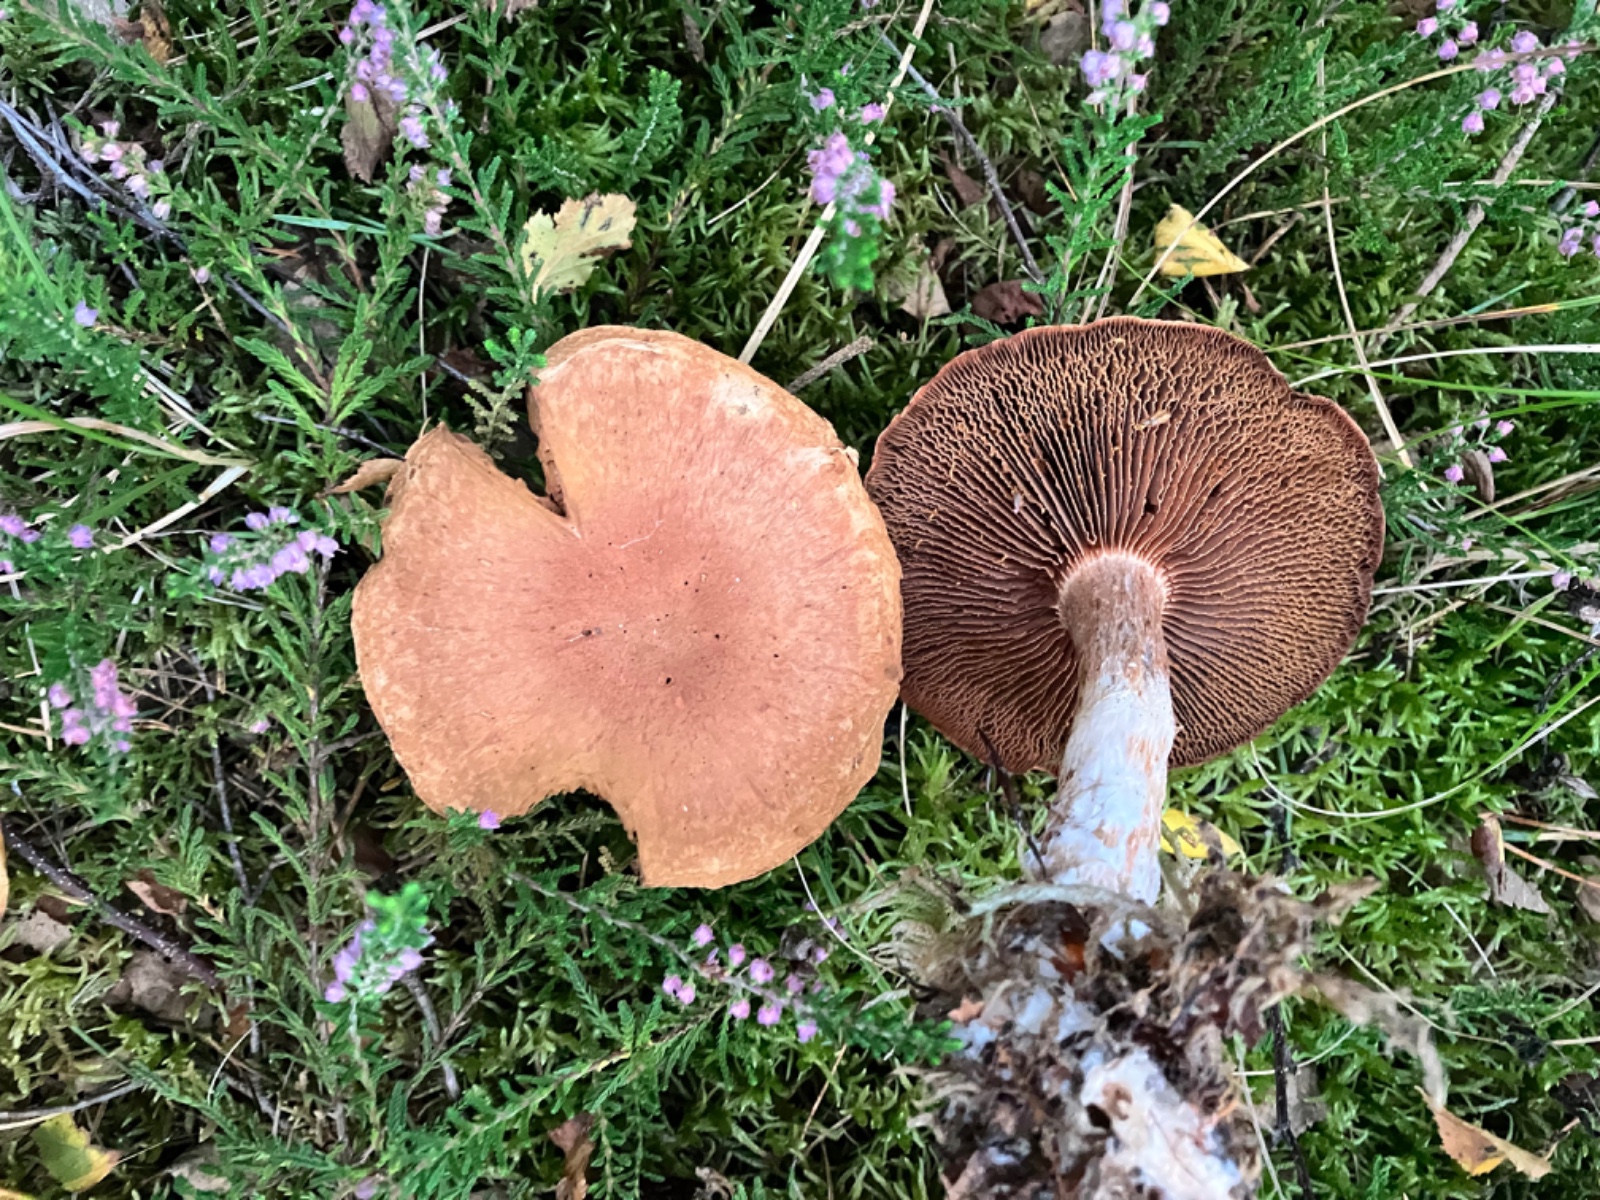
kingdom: Fungi
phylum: Basidiomycota
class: Agaricomycetes
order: Agaricales
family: Cortinariaceae
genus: Cortinarius
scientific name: Cortinarius alborufescens
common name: flosset slørhat
